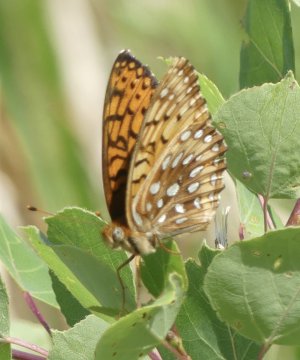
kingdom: Animalia
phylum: Arthropoda
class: Insecta
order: Lepidoptera
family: Nymphalidae
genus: Speyeria
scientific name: Speyeria atlantis
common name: Northwestern Fritillary
